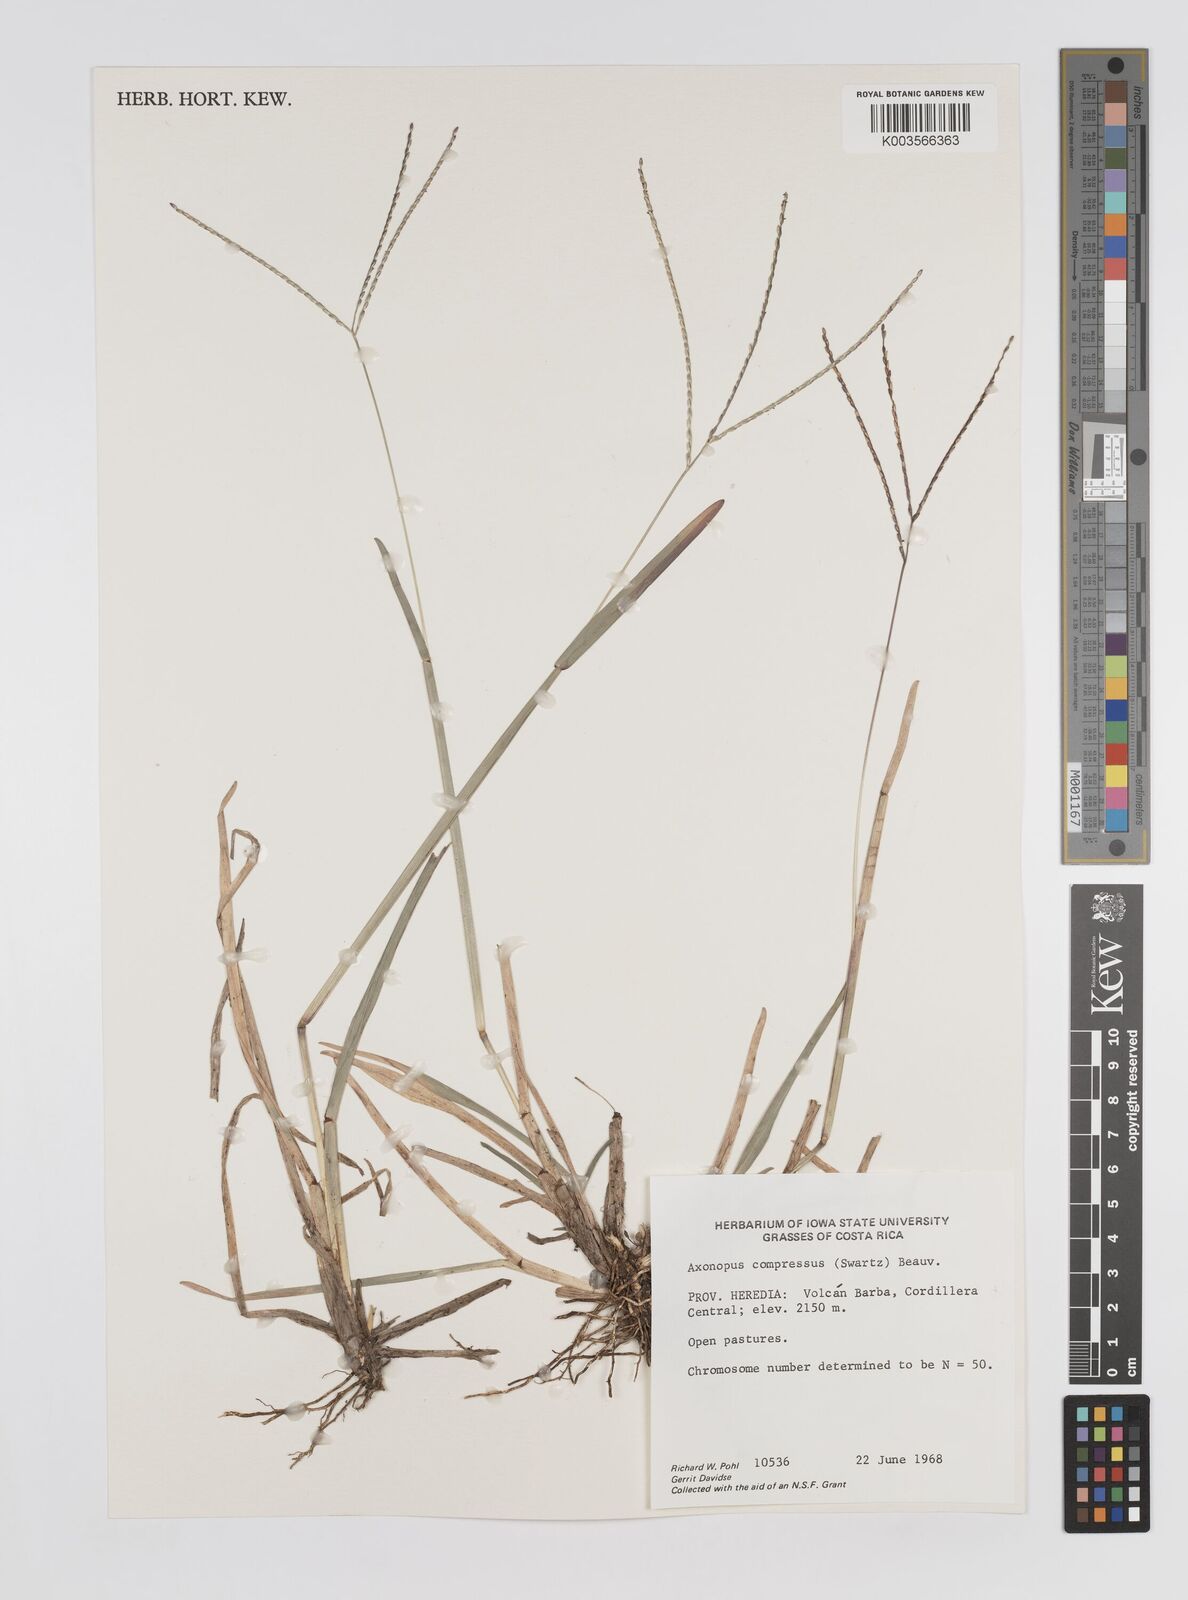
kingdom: Plantae
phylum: Tracheophyta
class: Liliopsida
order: Poales
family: Poaceae
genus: Axonopus
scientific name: Axonopus compressus
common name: American carpet grass
